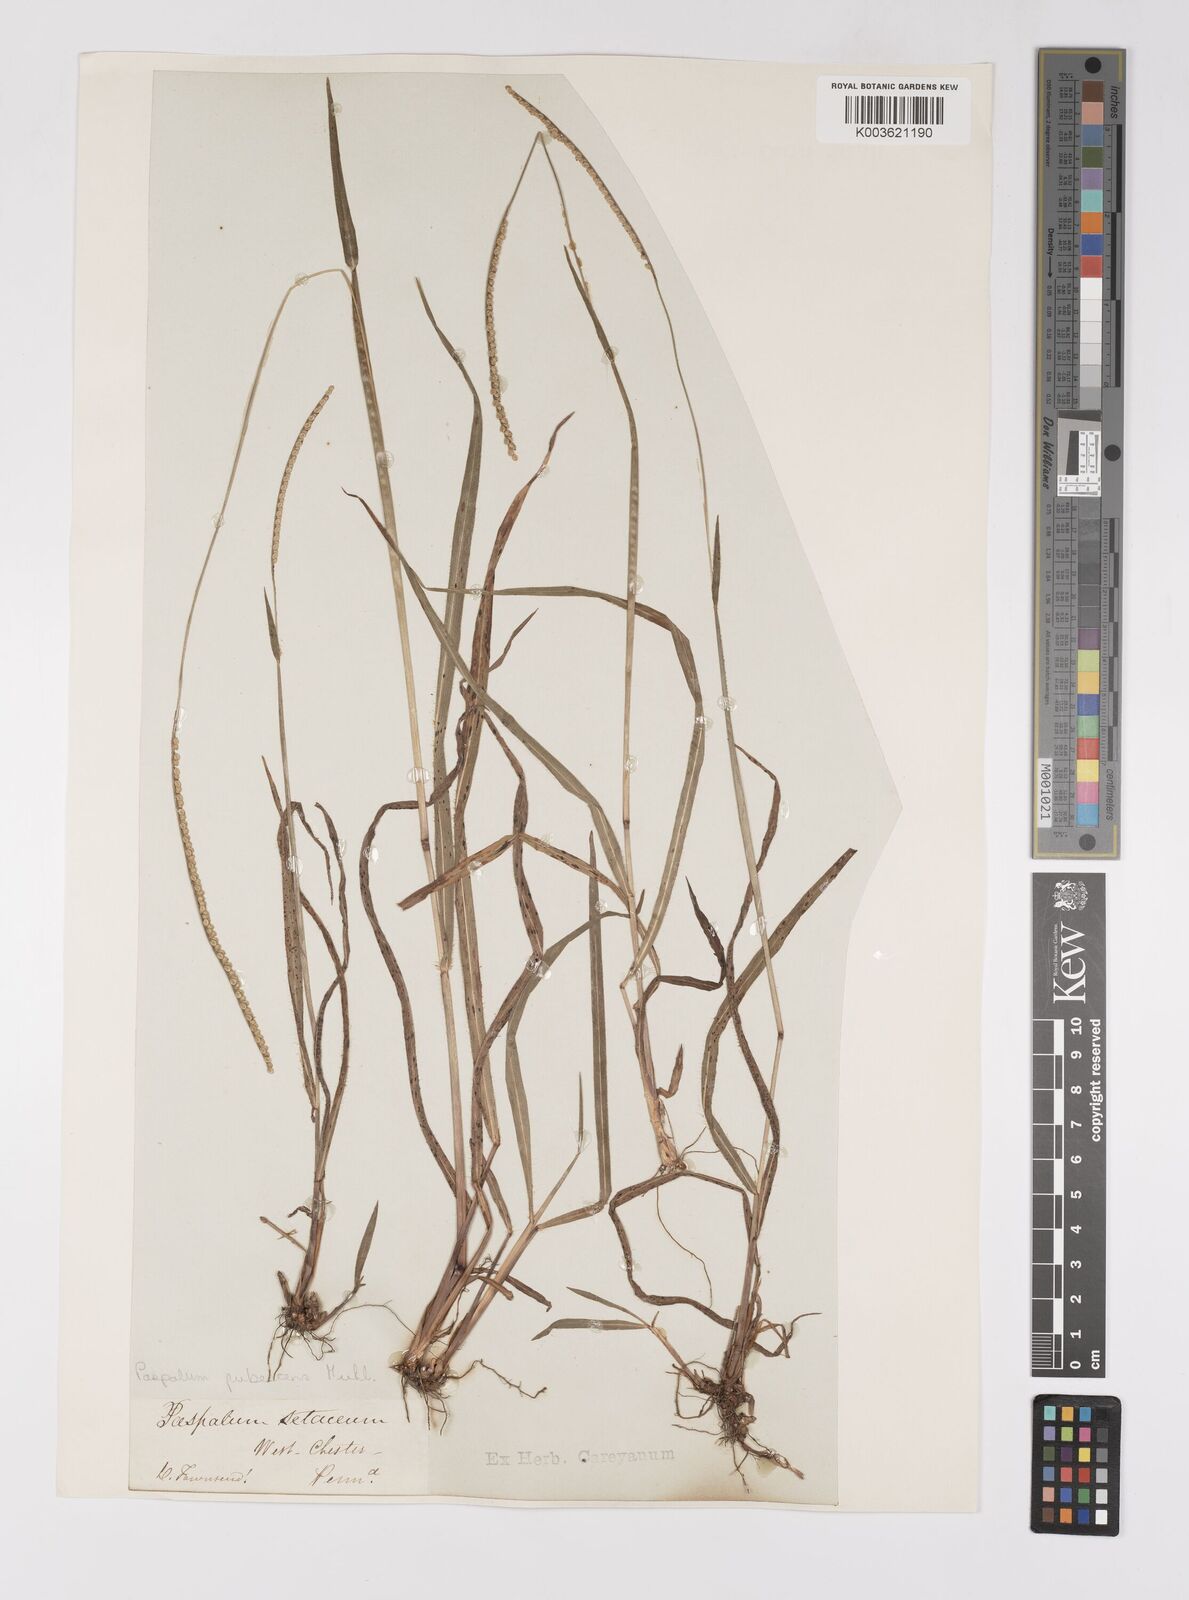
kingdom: Plantae
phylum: Tracheophyta
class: Liliopsida
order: Poales
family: Poaceae
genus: Paspalum
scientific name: Paspalum setaceum
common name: Slender paspalum
